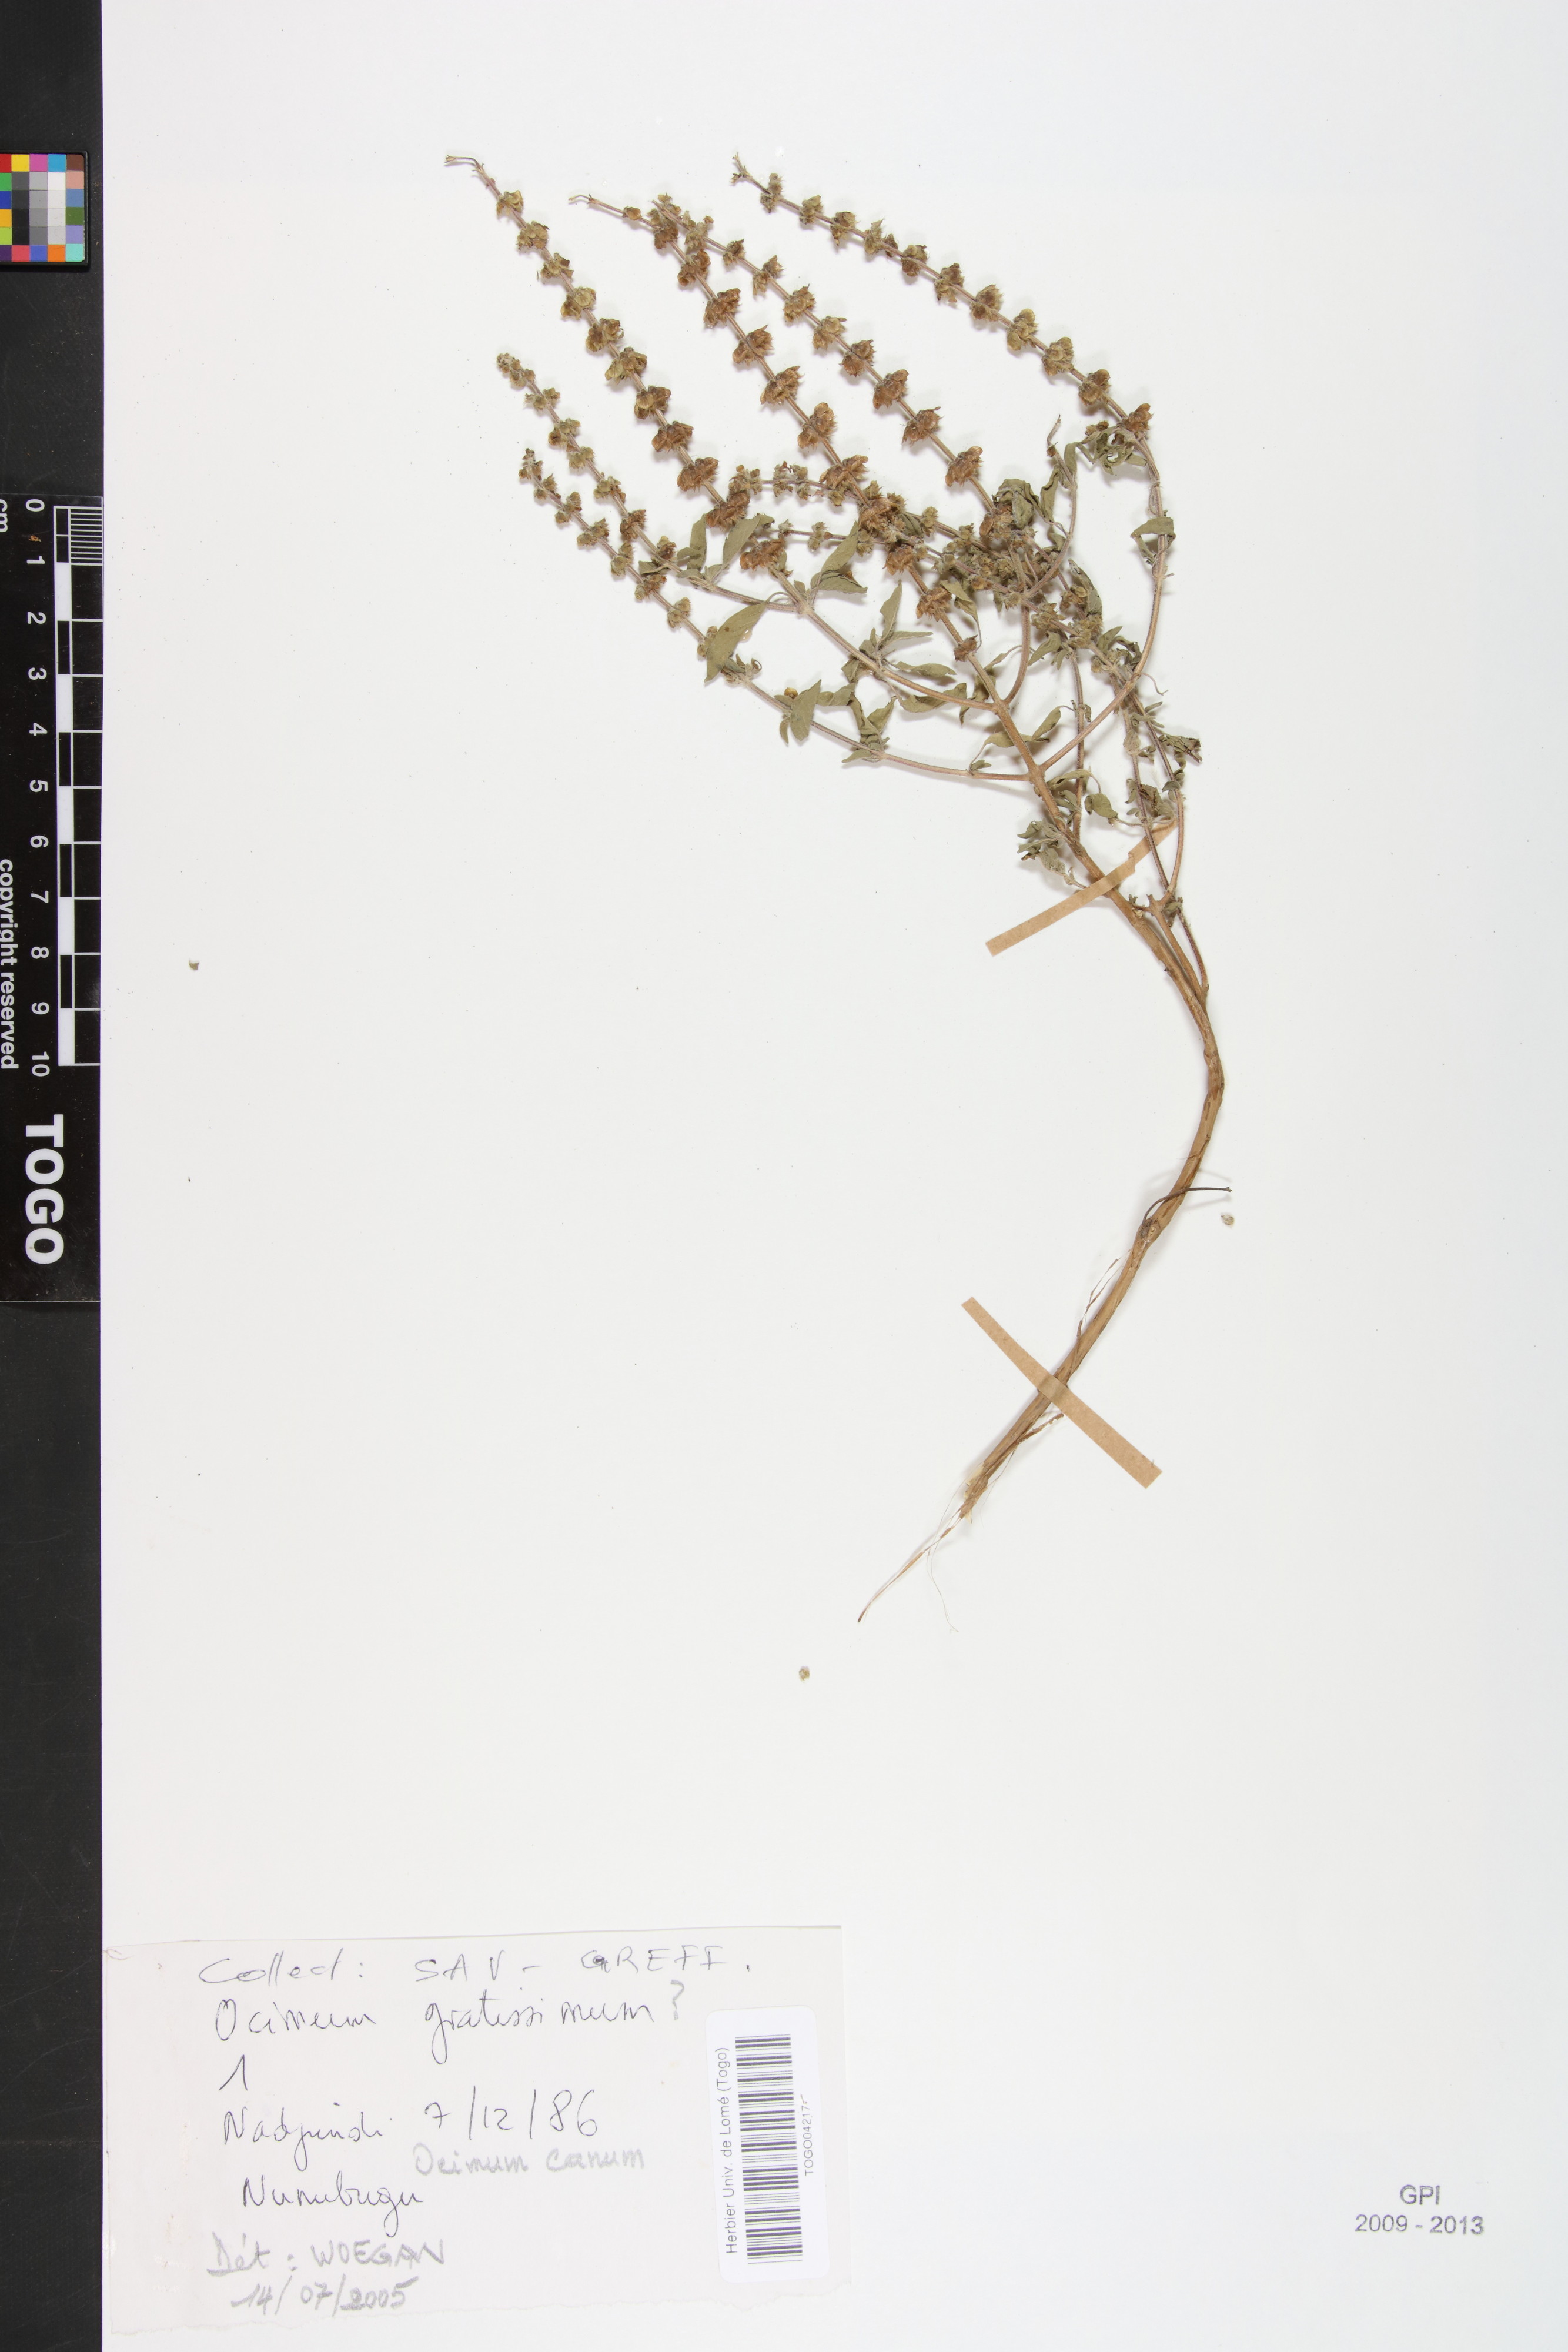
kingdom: Plantae
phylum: Tracheophyta
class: Magnoliopsida
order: Lamiales
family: Lamiaceae
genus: Ocimum
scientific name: Ocimum americanum
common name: American basil
